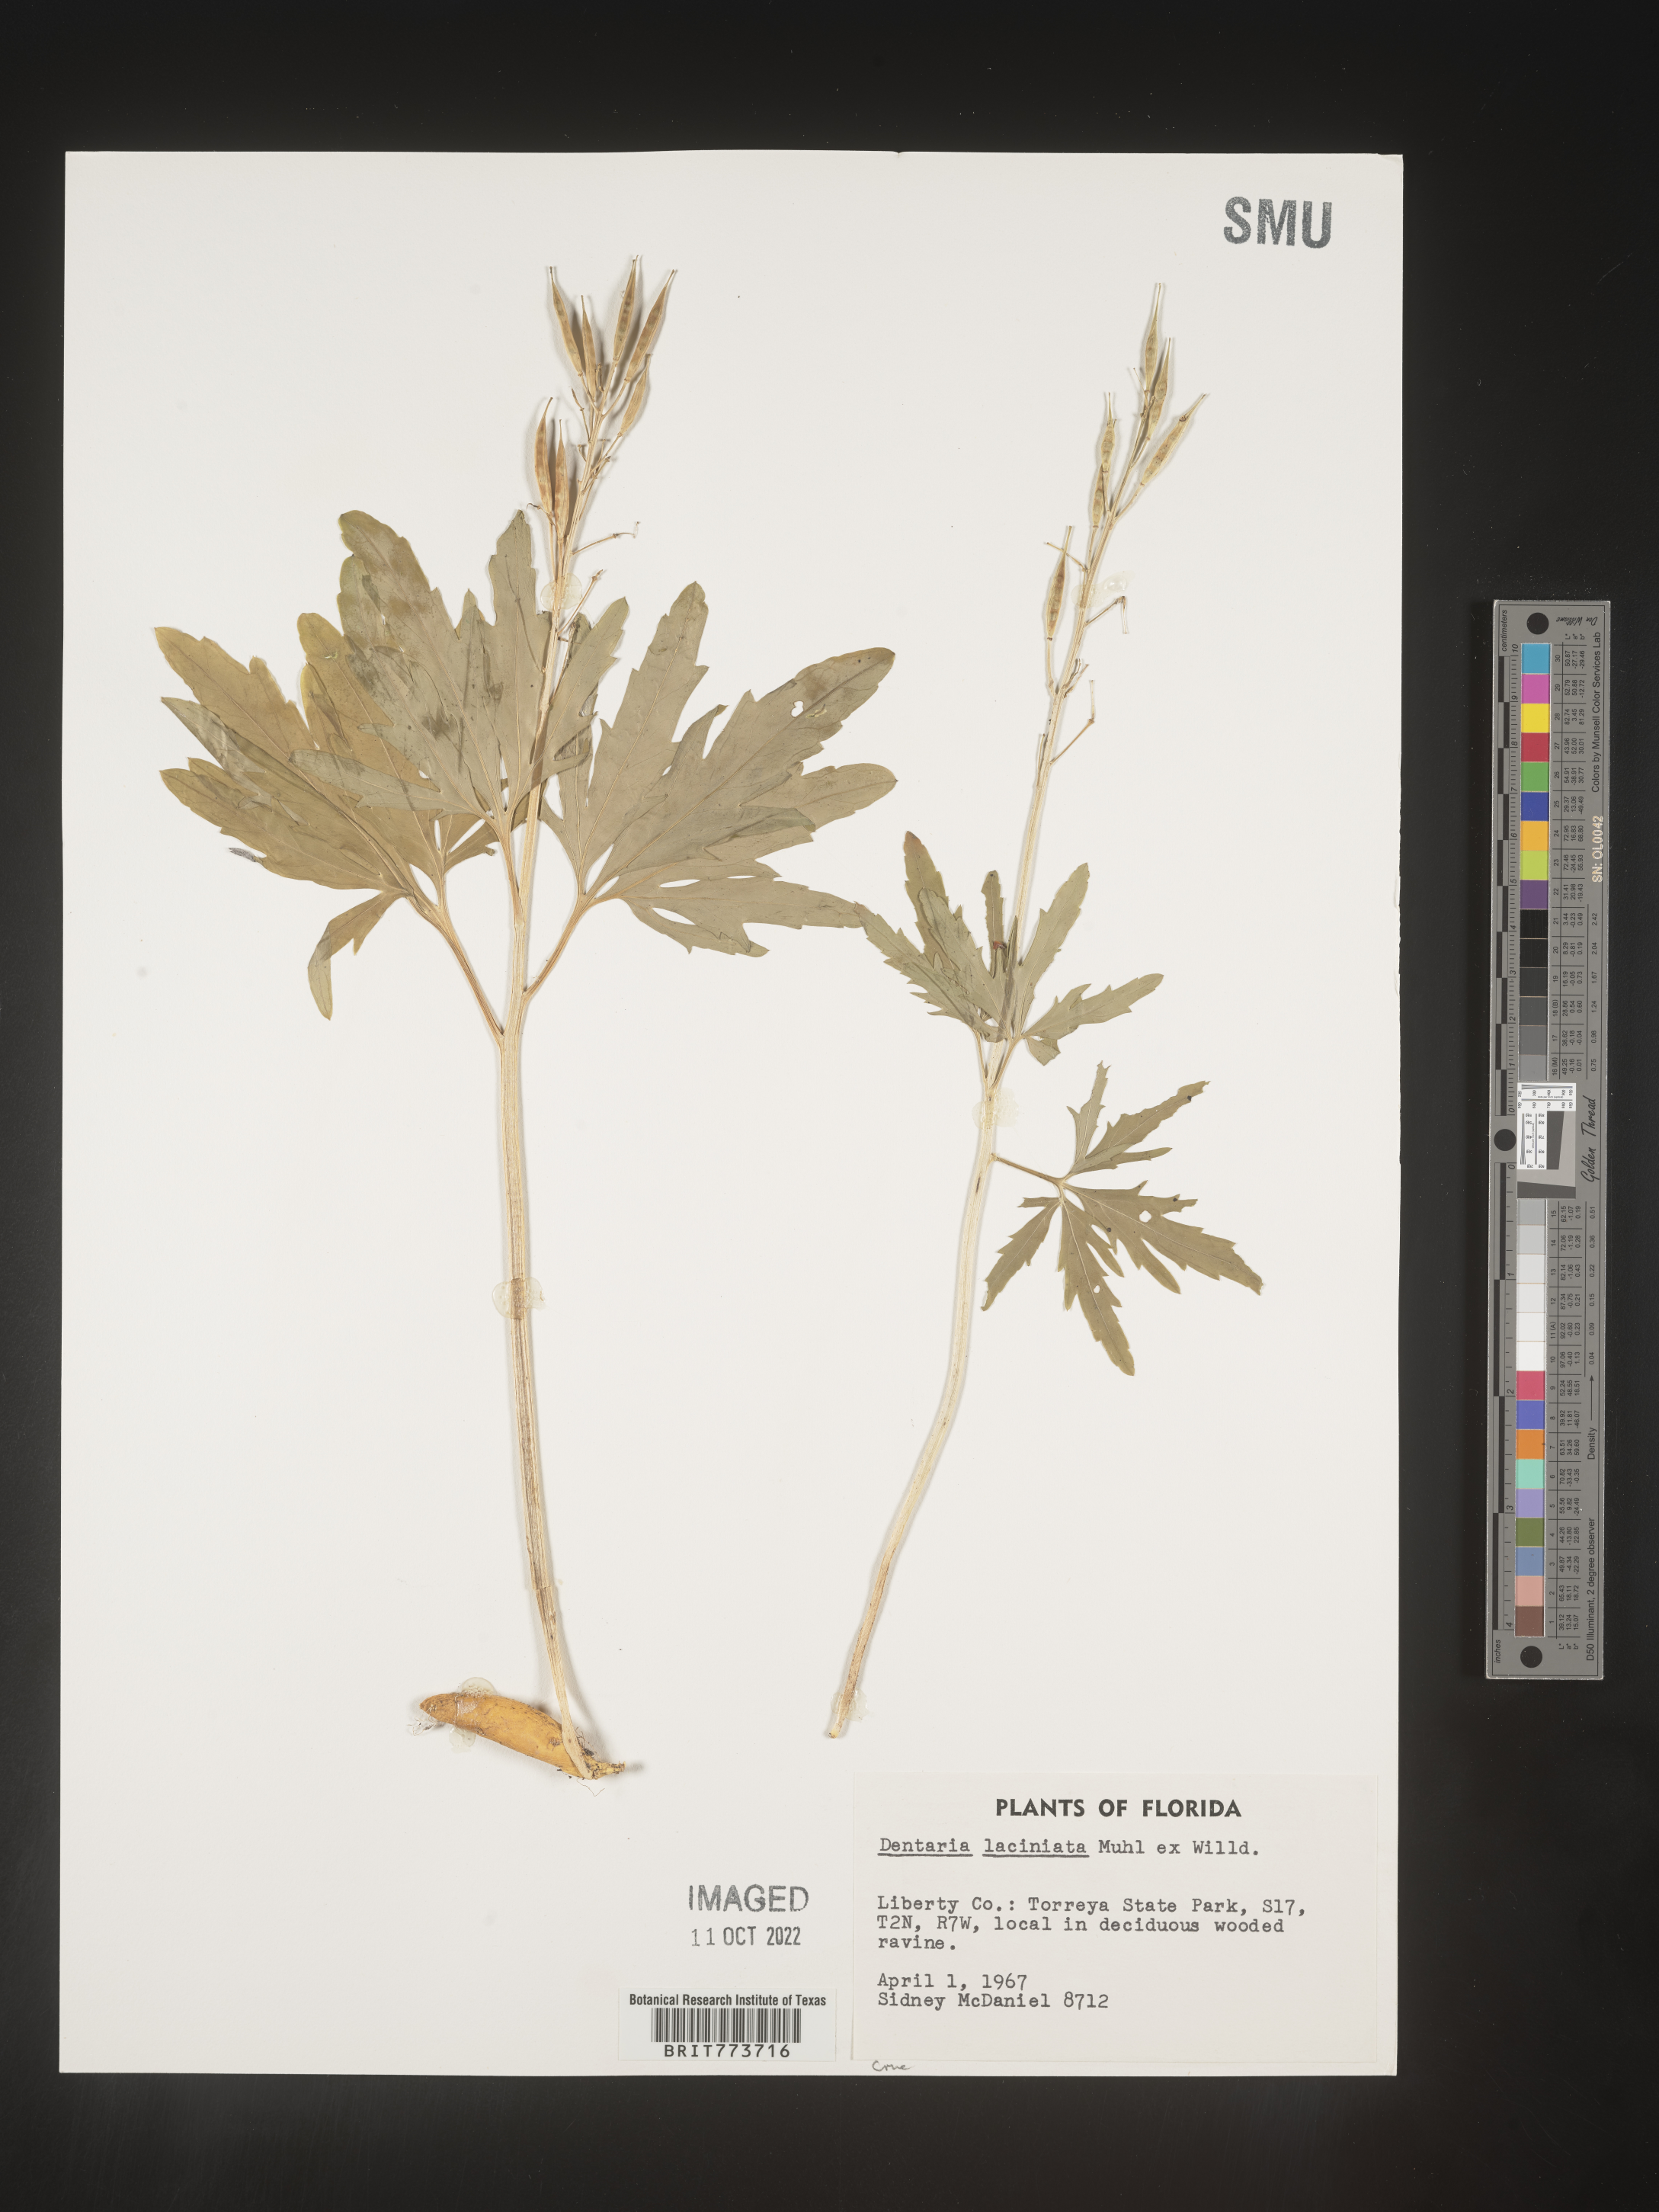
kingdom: Plantae
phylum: Tracheophyta
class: Magnoliopsida
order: Brassicales
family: Brassicaceae
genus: Rorippa
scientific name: Rorippa laciniata
